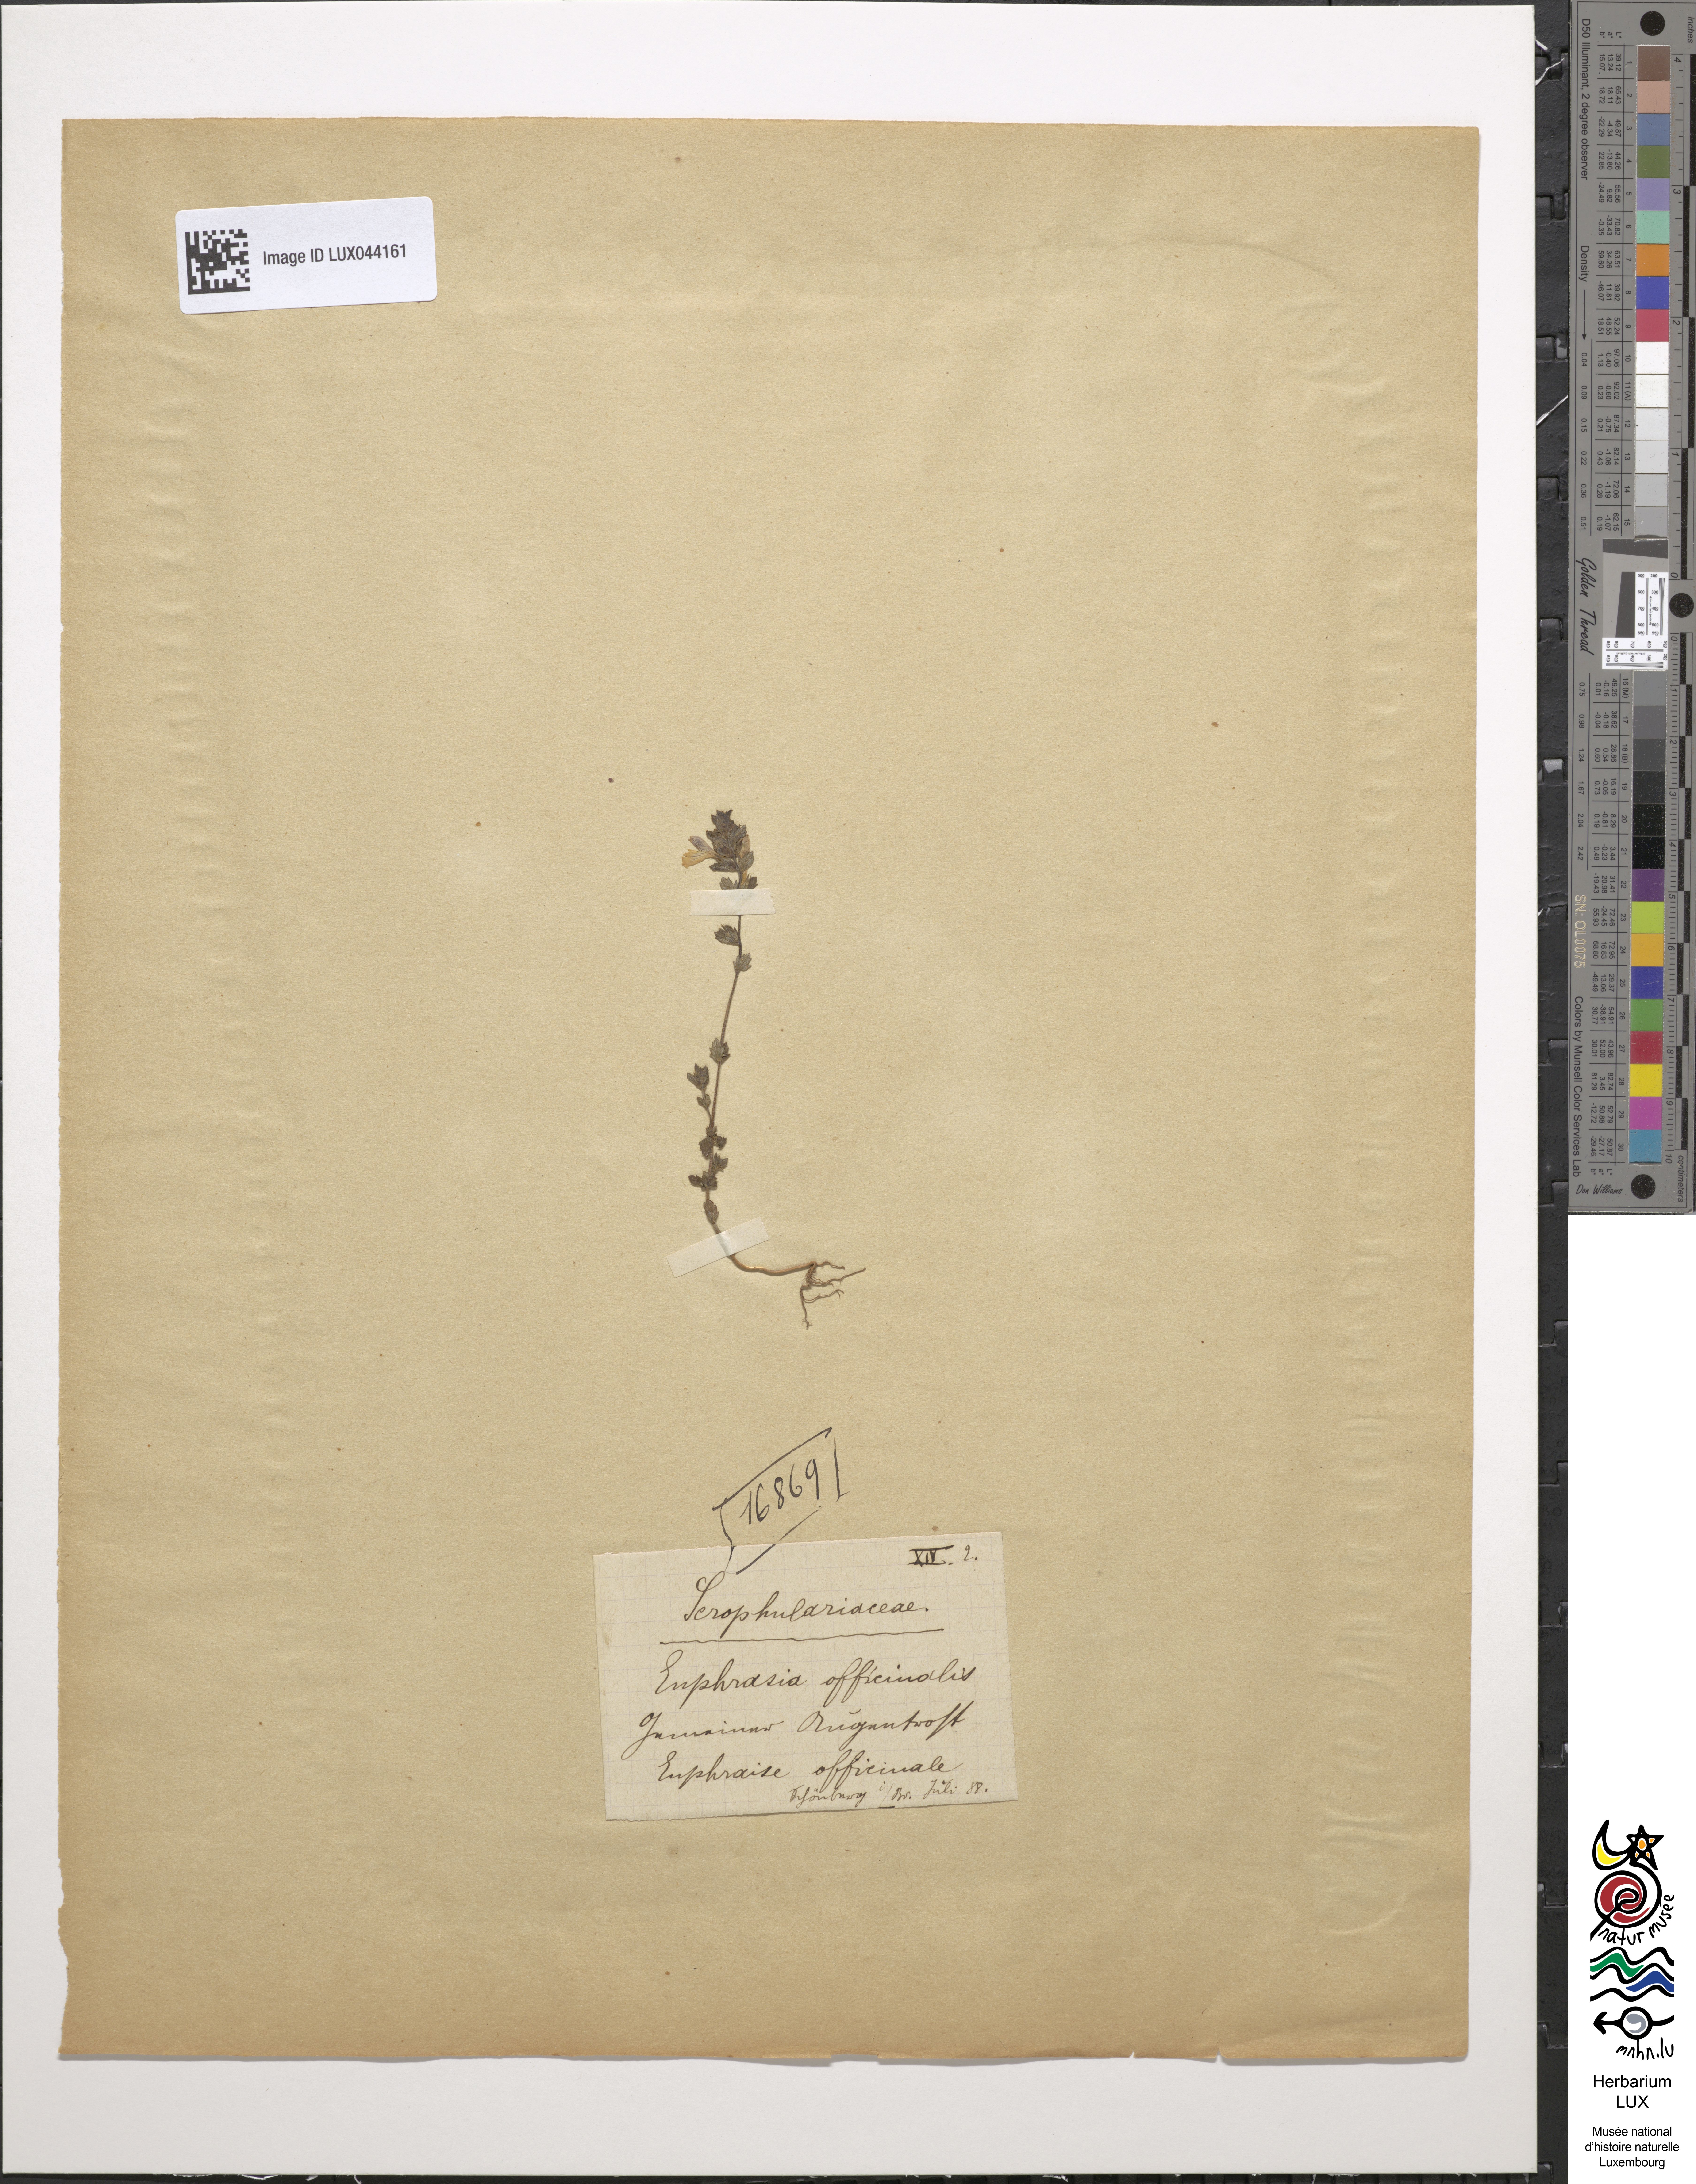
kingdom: Plantae
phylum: Tracheophyta
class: Magnoliopsida
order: Malpighiales
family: Euphorbiaceae
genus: Euphorbia
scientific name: Euphorbia stricta
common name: Upright spurge
